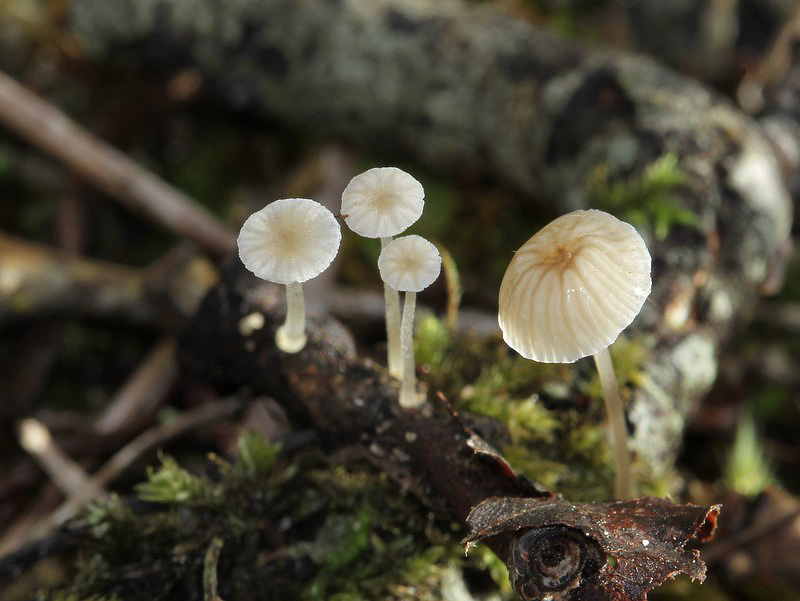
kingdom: Fungi
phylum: Basidiomycota
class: Agaricomycetes
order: Agaricales
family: Porotheleaceae
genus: Phloeomana
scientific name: Phloeomana speirea
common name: kvist-huesvamp
